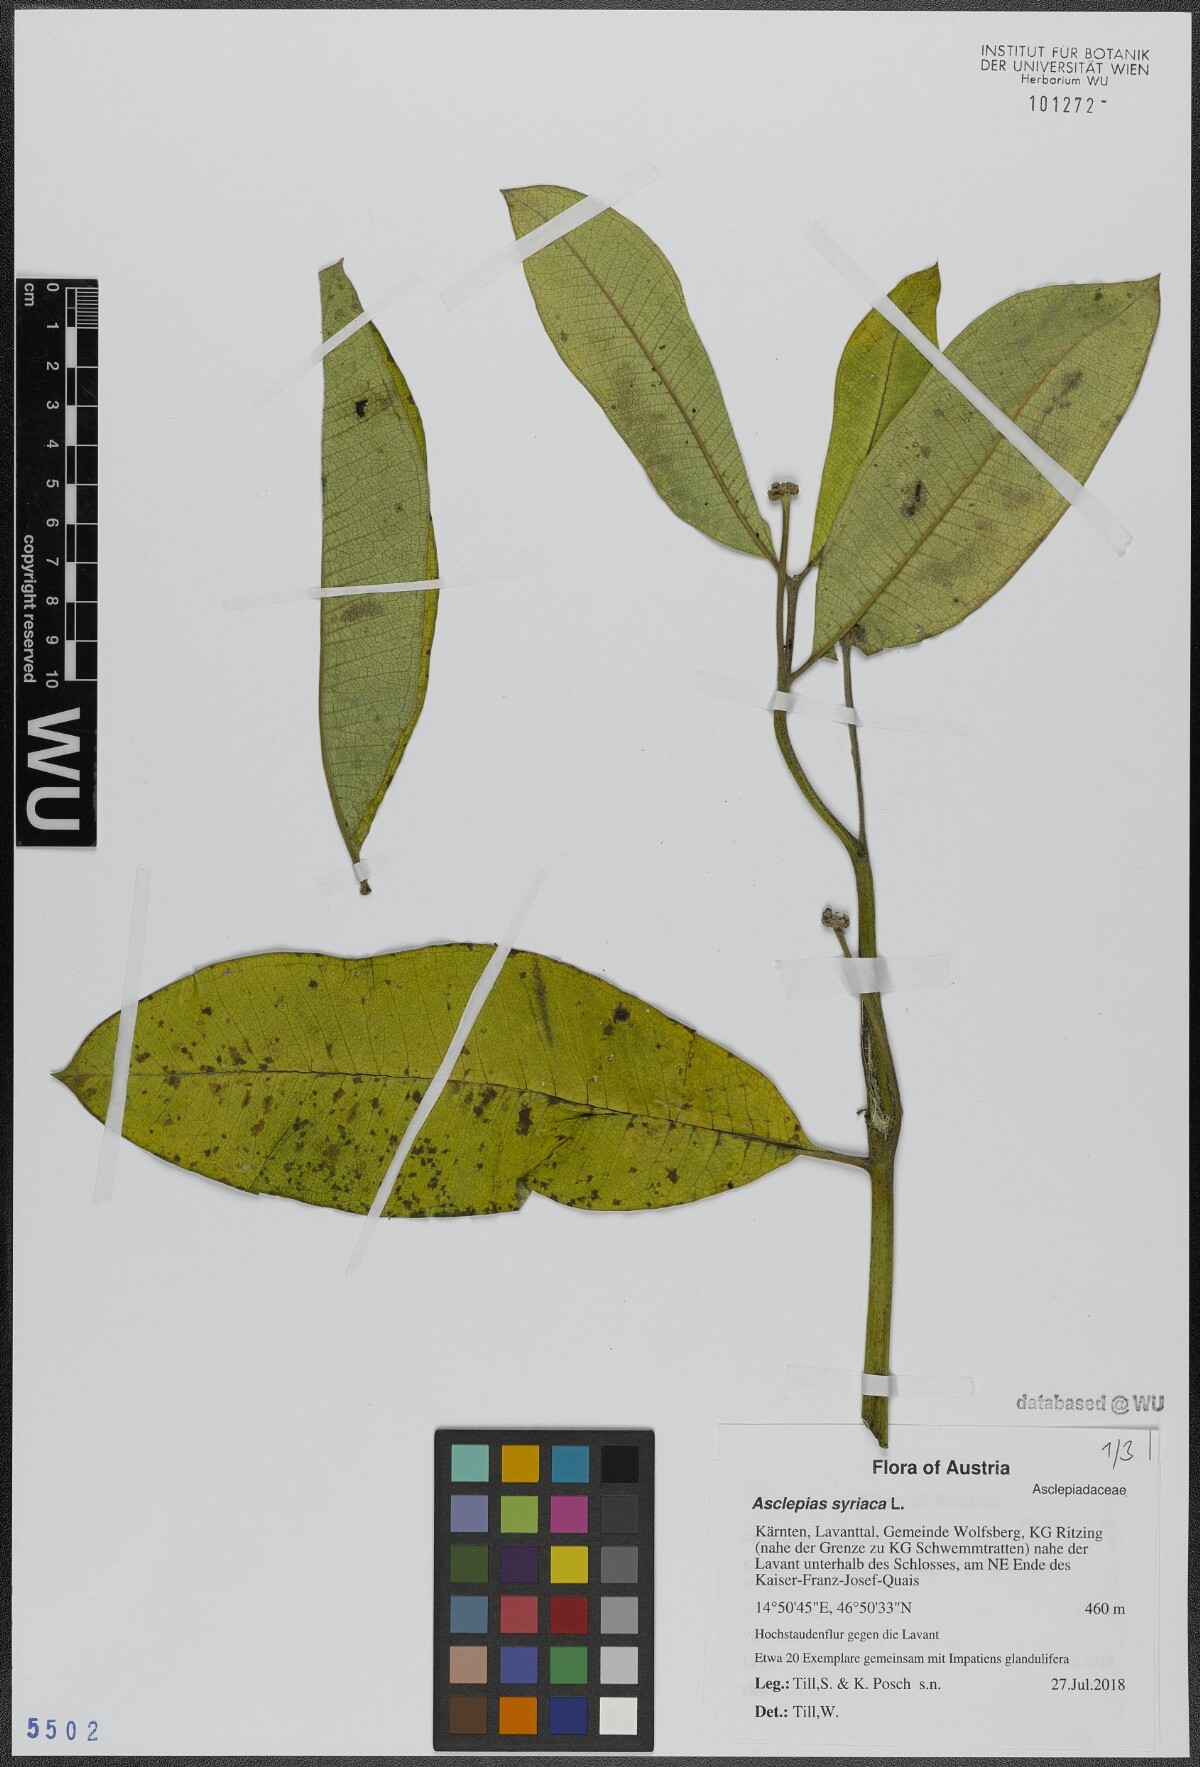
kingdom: Plantae
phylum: Tracheophyta
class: Magnoliopsida
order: Gentianales
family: Apocynaceae
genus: Asclepias
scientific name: Asclepias syriaca
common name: Common milkweed
